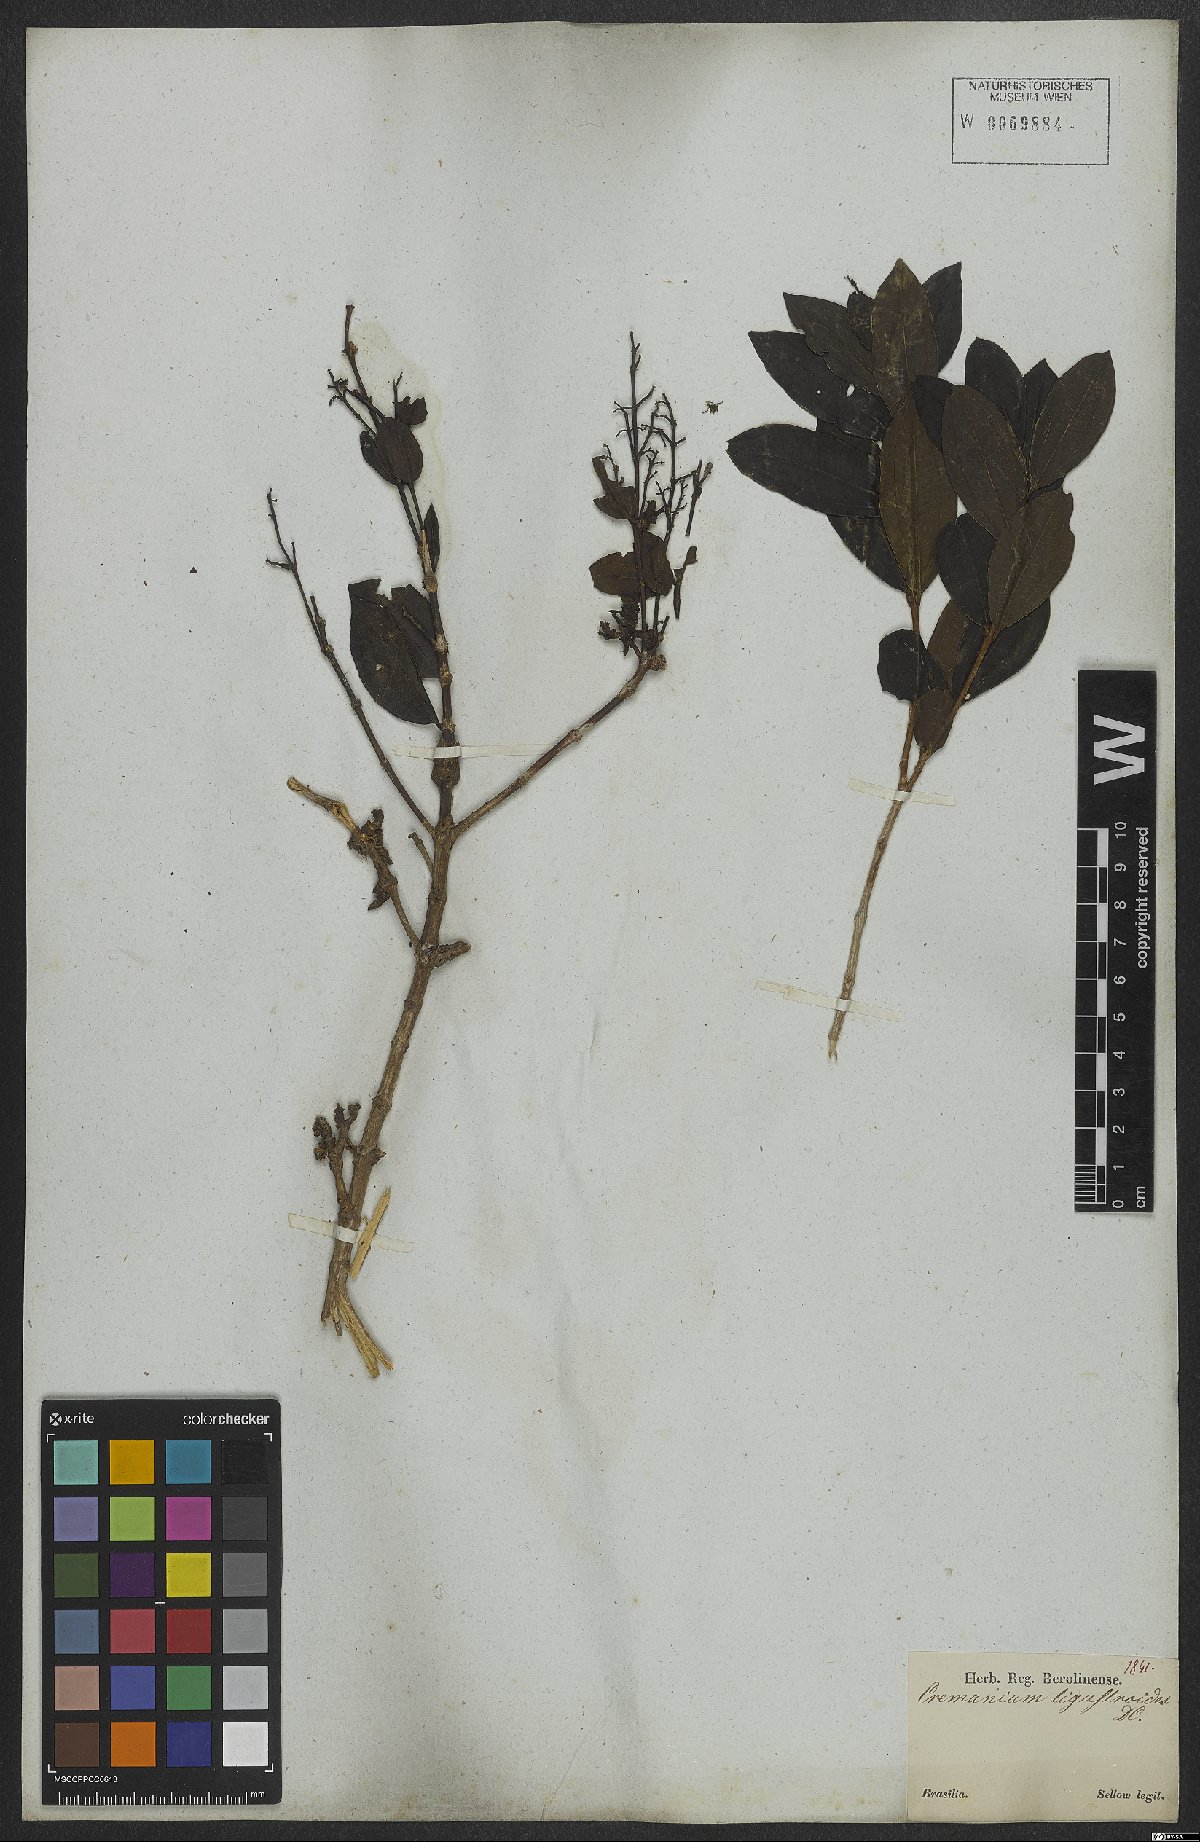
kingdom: Plantae
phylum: Tracheophyta
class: Magnoliopsida
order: Myrtales
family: Melastomataceae
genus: Miconia
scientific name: Miconia ligustroides
